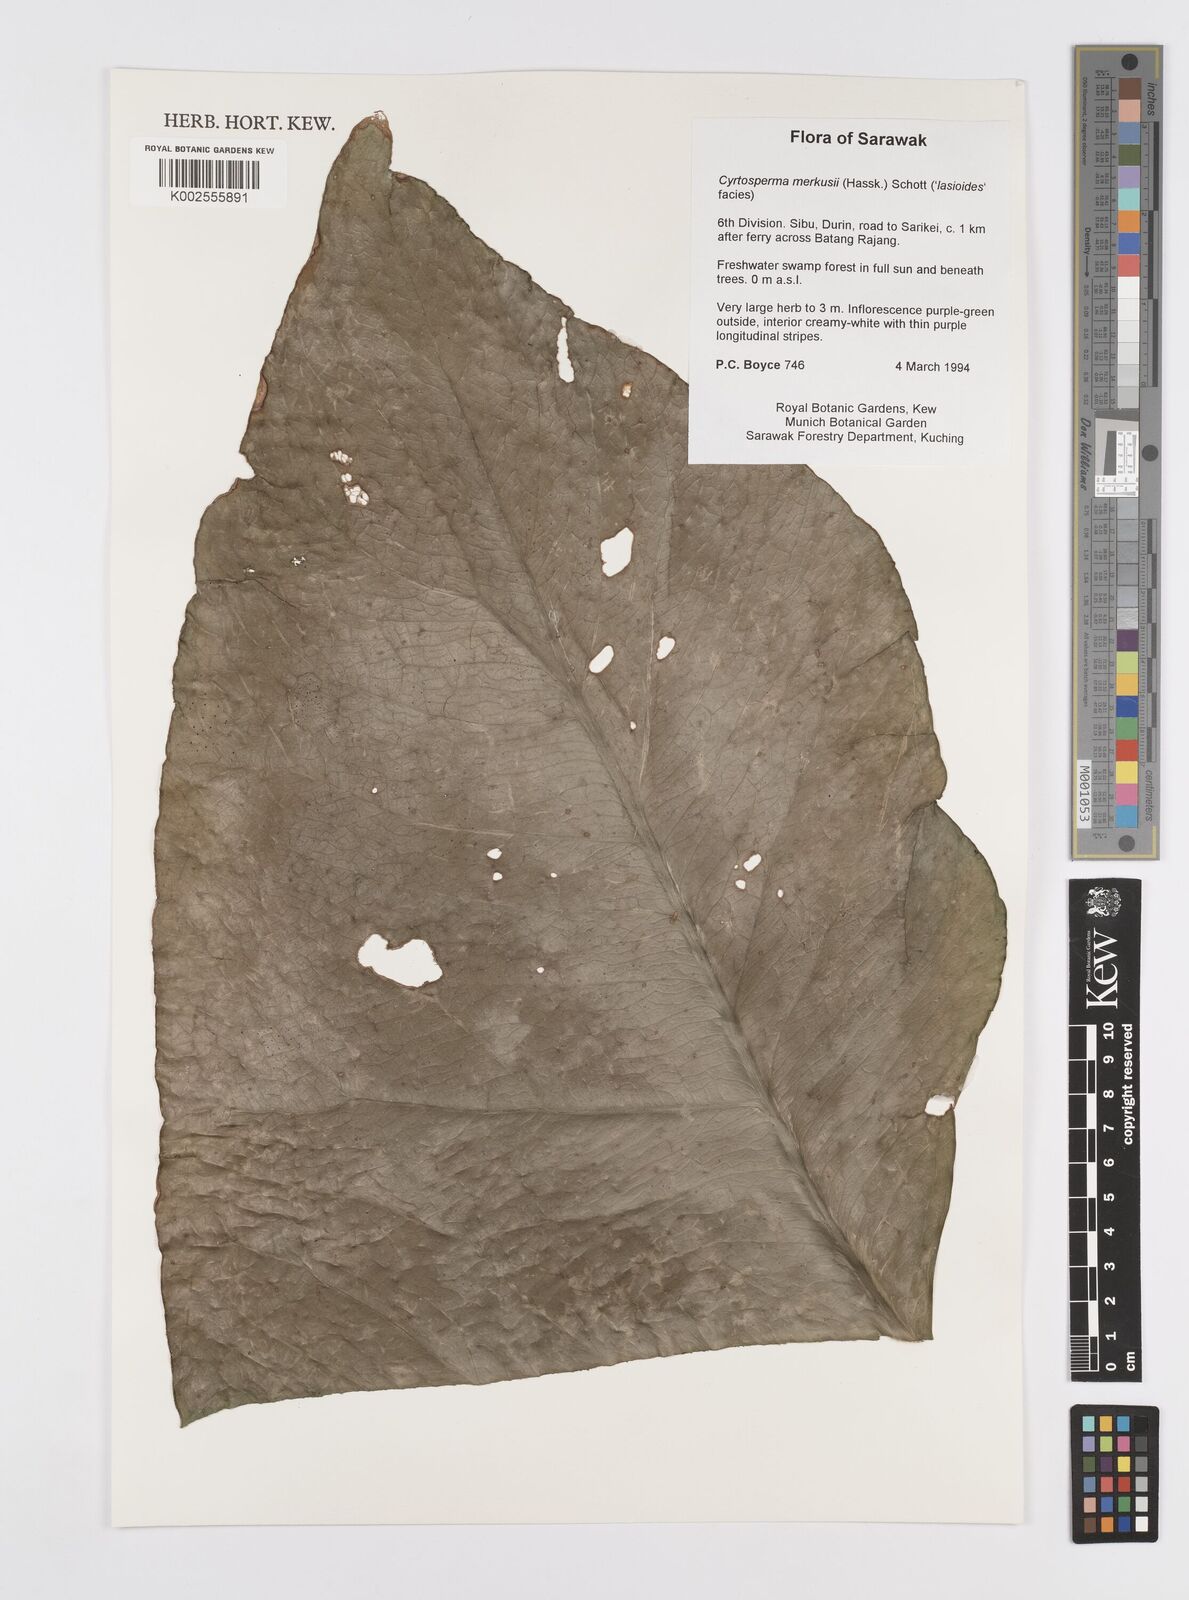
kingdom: Plantae
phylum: Tracheophyta
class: Liliopsida
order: Alismatales
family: Araceae
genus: Cyrtosperma
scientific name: Cyrtosperma merkusii
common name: Giant swamp-taro
